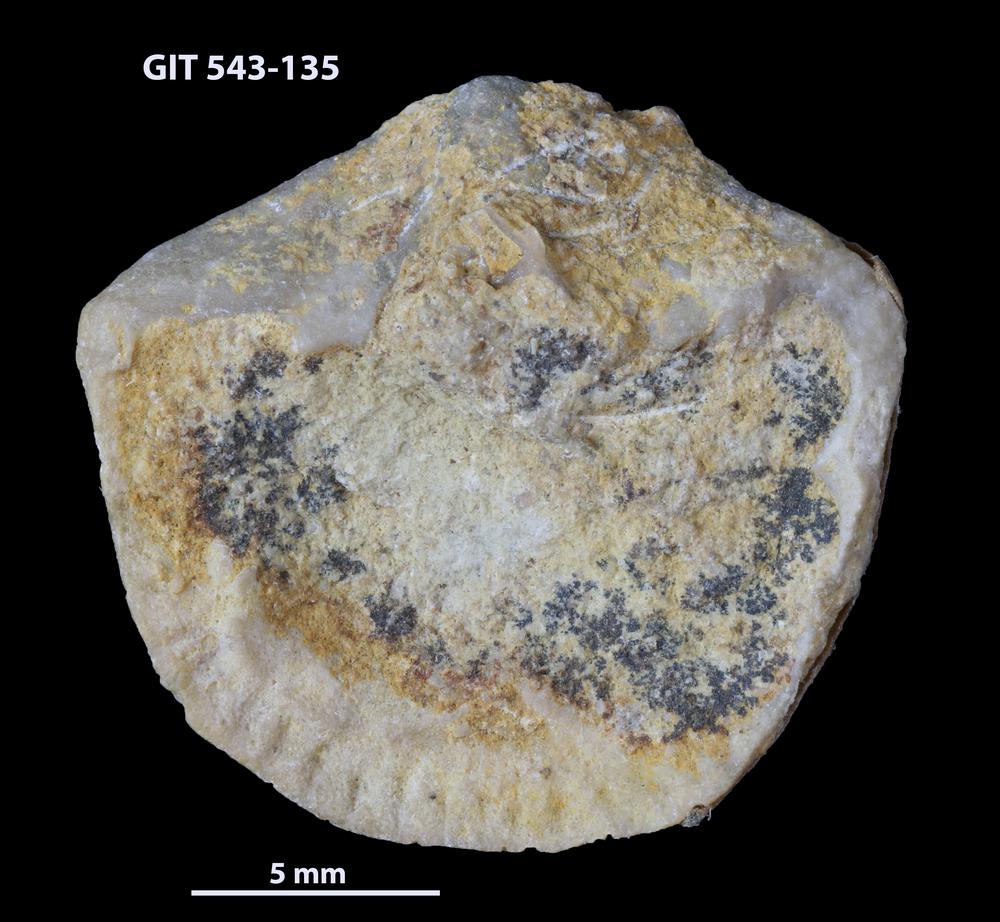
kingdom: Animalia
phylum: Brachiopoda
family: Gonambonitidae
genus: Estlandia
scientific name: Estlandia Orthisina marginata
